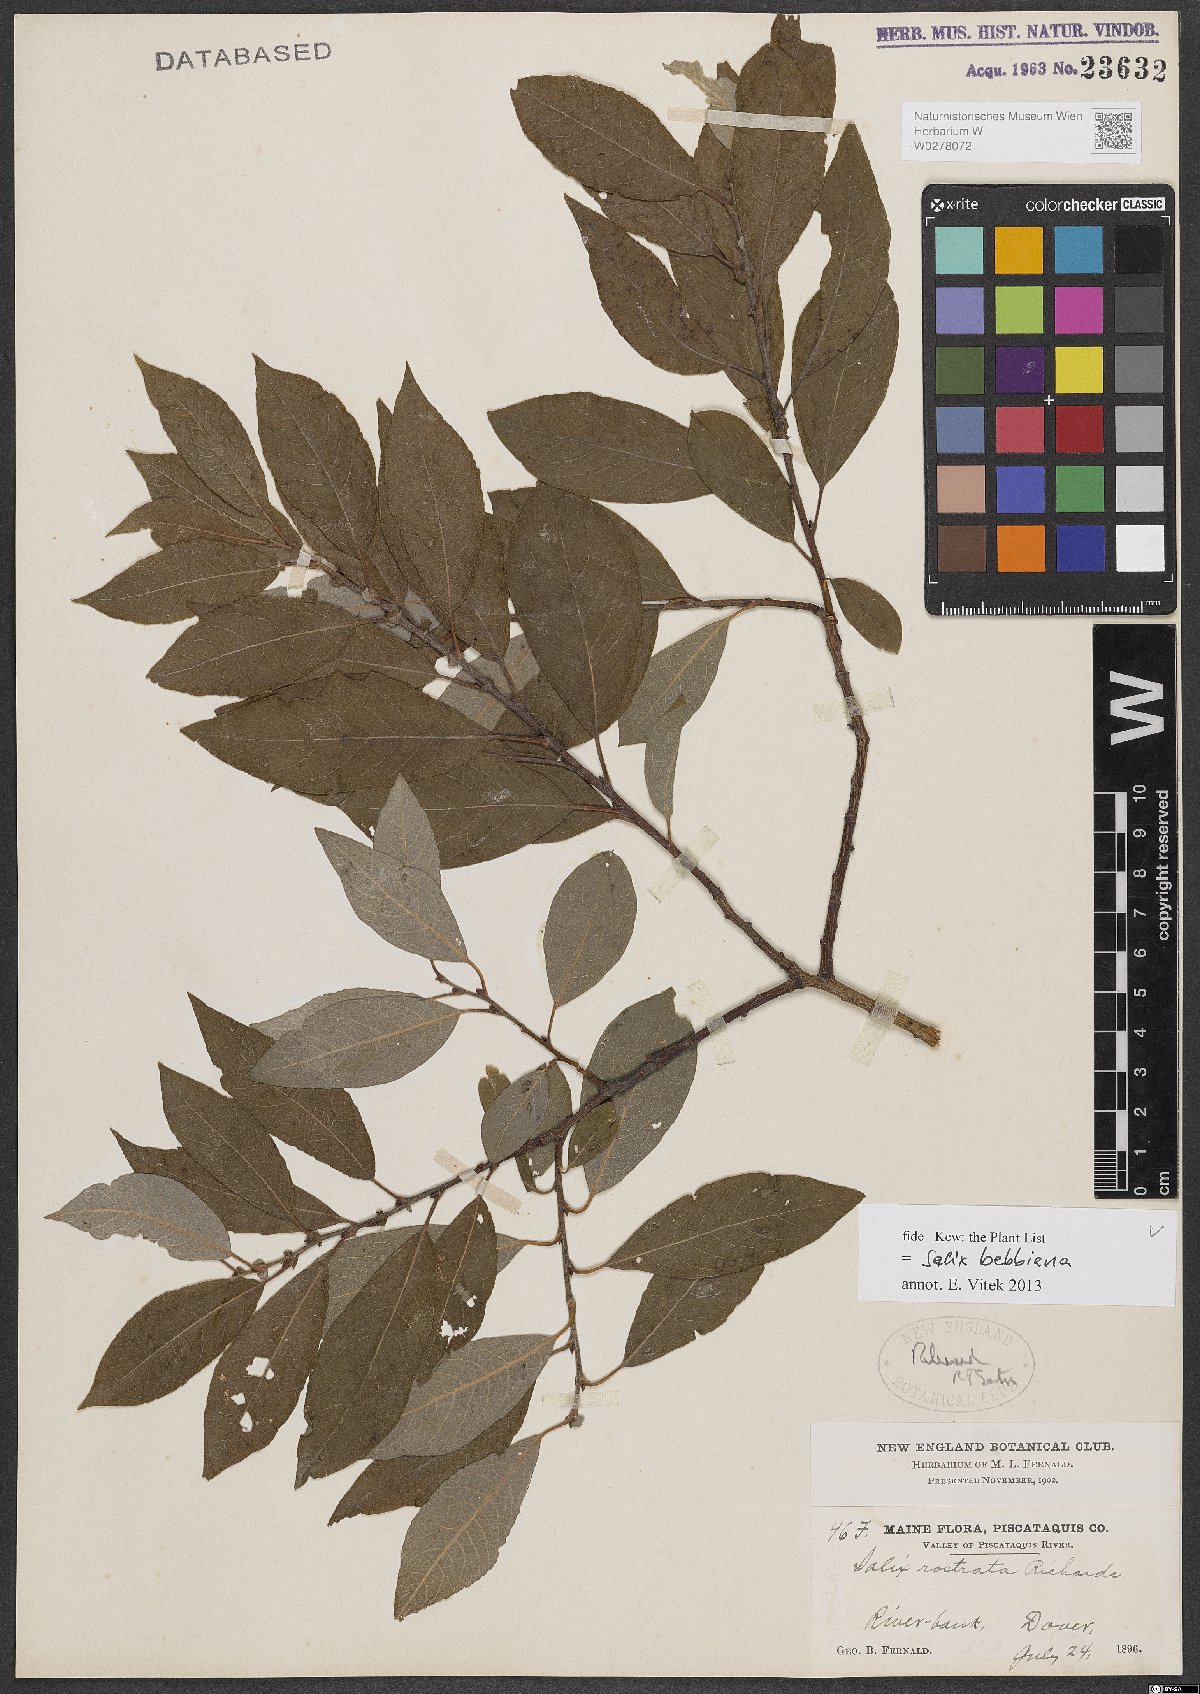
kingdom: Plantae
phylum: Tracheophyta
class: Magnoliopsida
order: Malpighiales
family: Salicaceae
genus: Salix
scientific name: Salix bebbiana
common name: Bebb's willow
